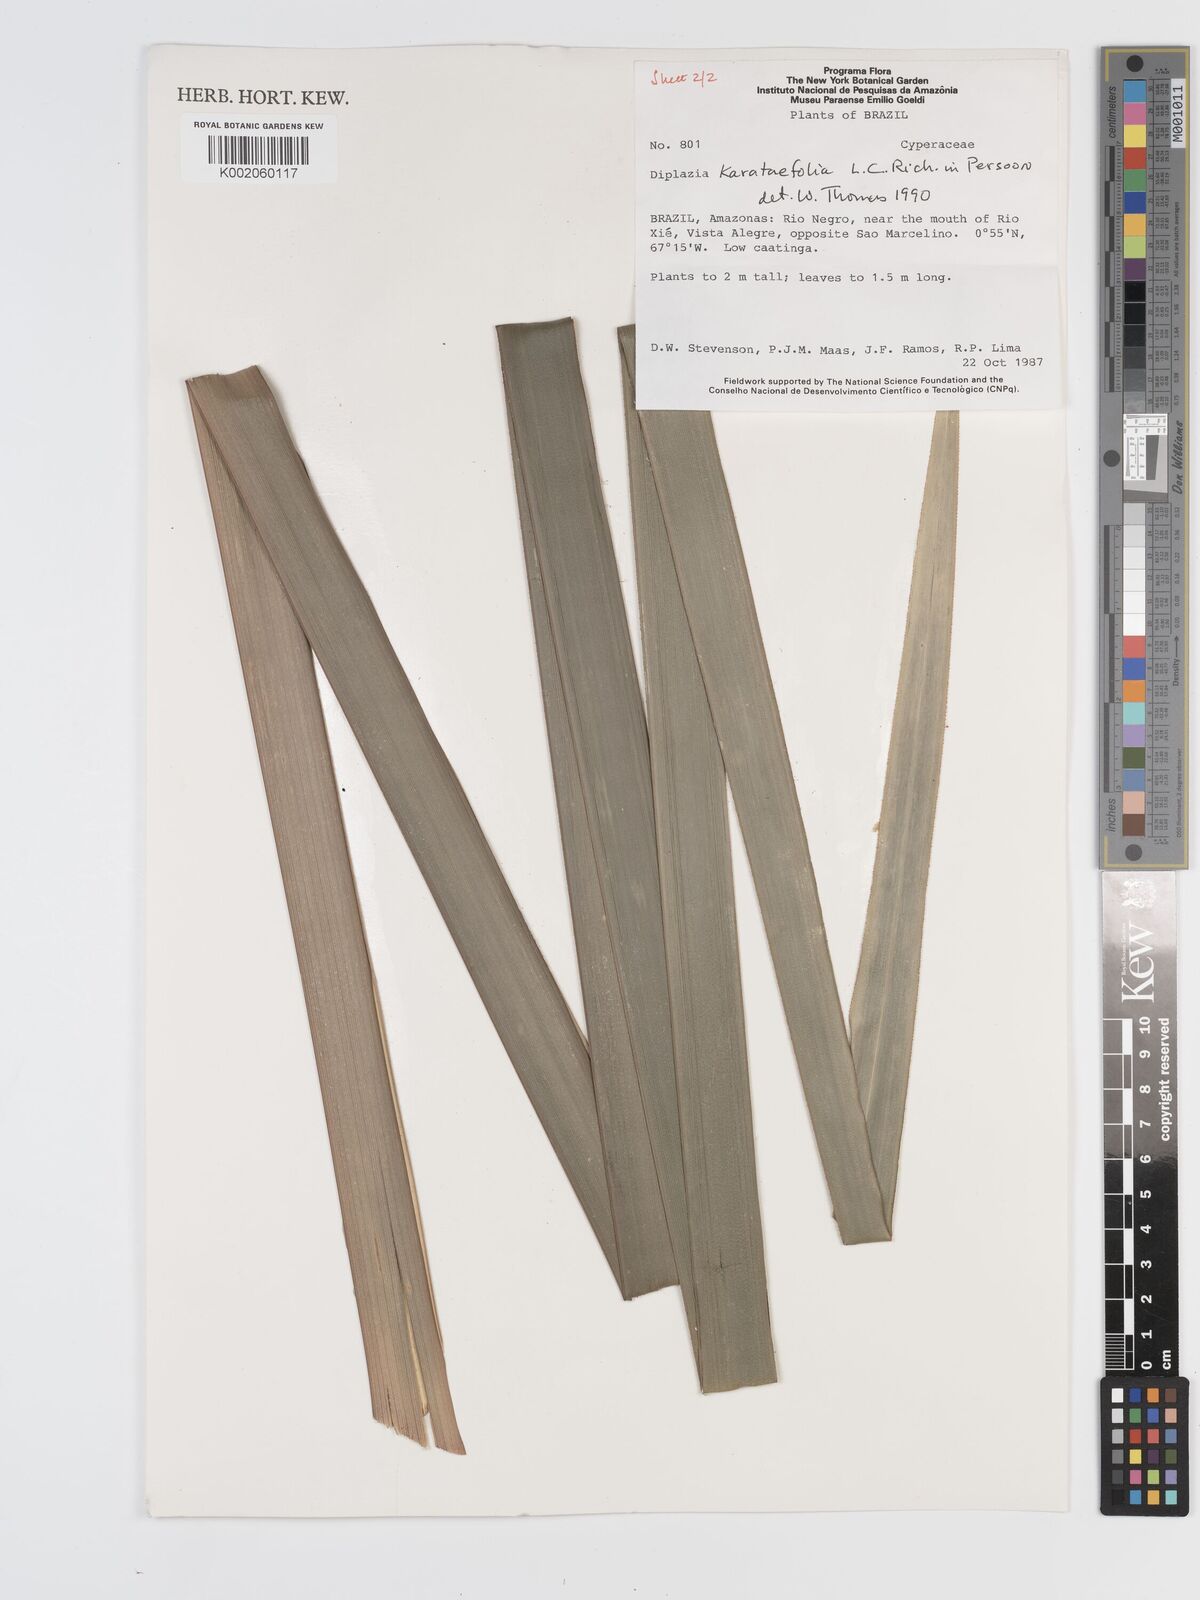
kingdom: Plantae
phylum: Tracheophyta
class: Liliopsida
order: Poales
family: Cyperaceae
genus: Diplasia
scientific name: Diplasia karatifolia
